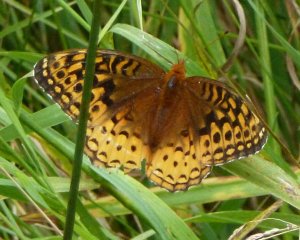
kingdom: Animalia
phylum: Arthropoda
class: Insecta
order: Lepidoptera
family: Nymphalidae
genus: Speyeria
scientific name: Speyeria cybele
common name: Great Spangled Fritillary
